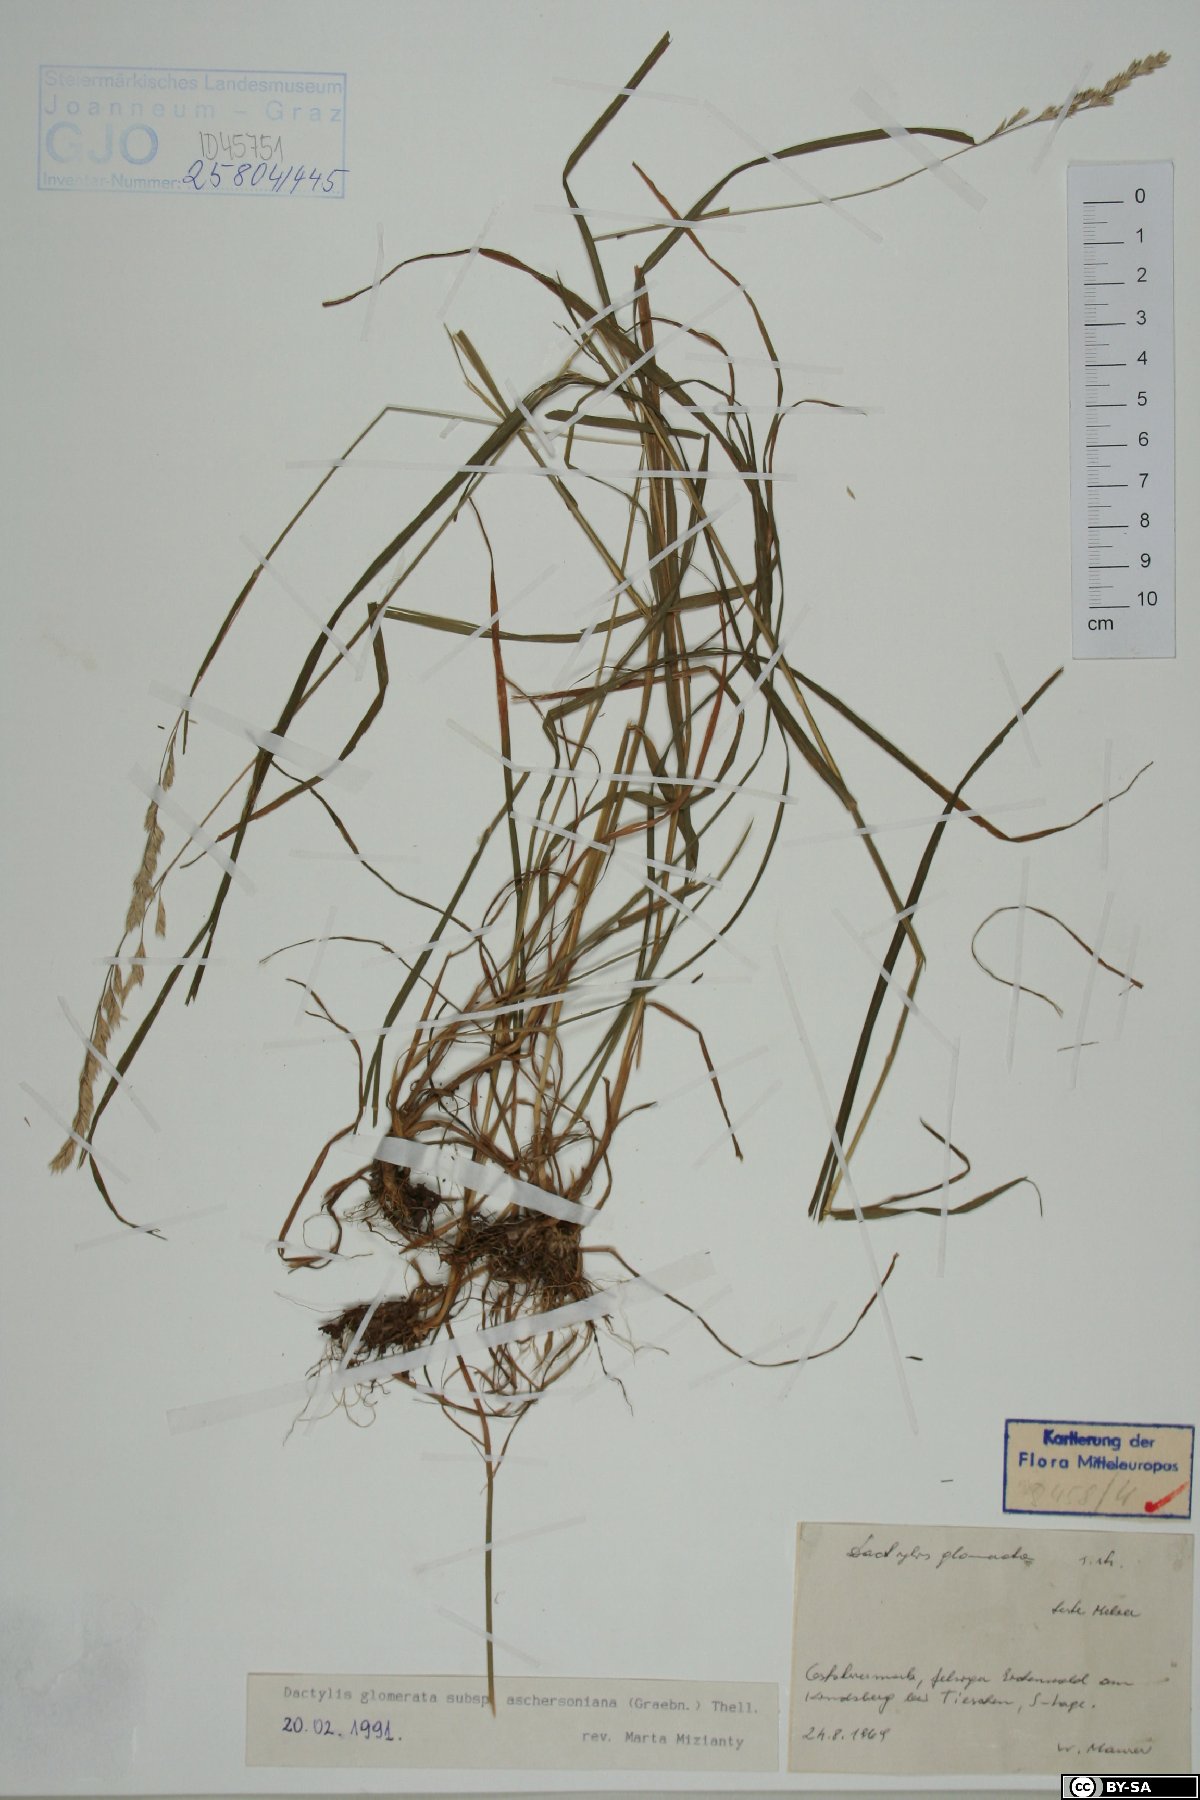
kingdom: Plantae
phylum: Tracheophyta
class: Liliopsida
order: Poales
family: Poaceae
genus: Dactylis
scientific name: Dactylis glomerata
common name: Orchardgrass
